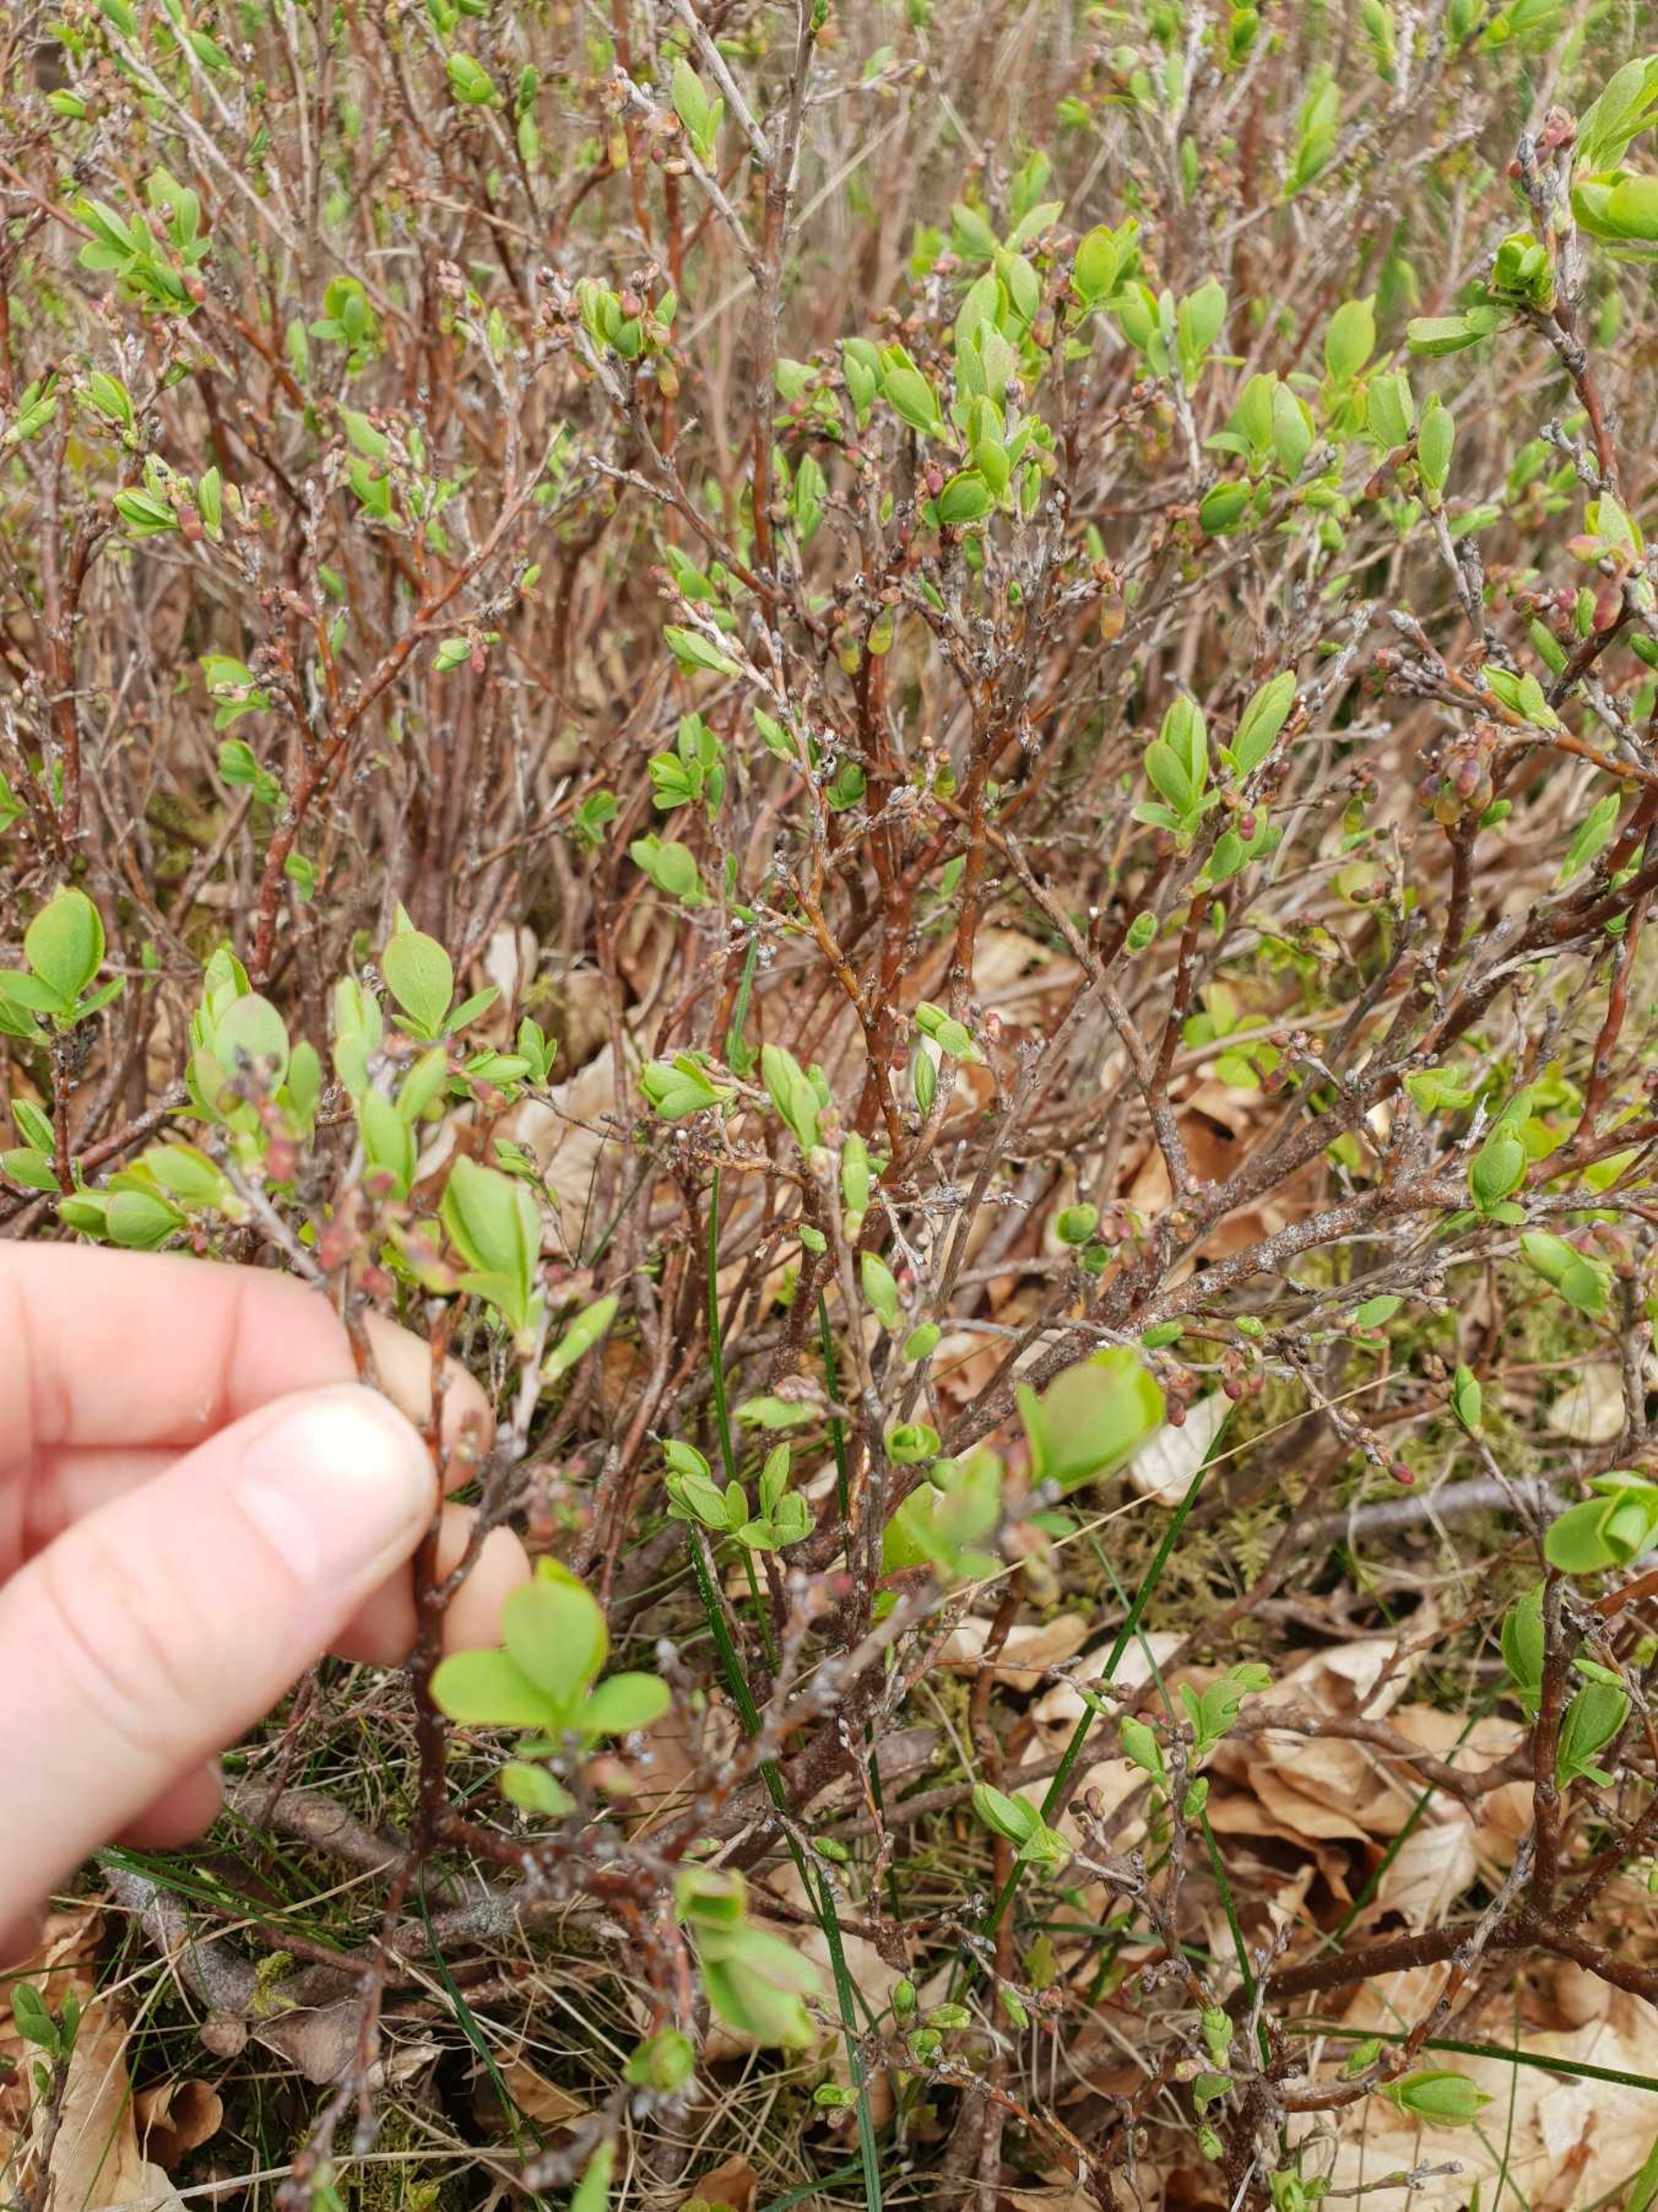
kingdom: Plantae
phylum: Tracheophyta
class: Magnoliopsida
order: Ericales
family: Ericaceae
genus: Vaccinium
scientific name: Vaccinium uliginosum
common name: Mose-bølle
